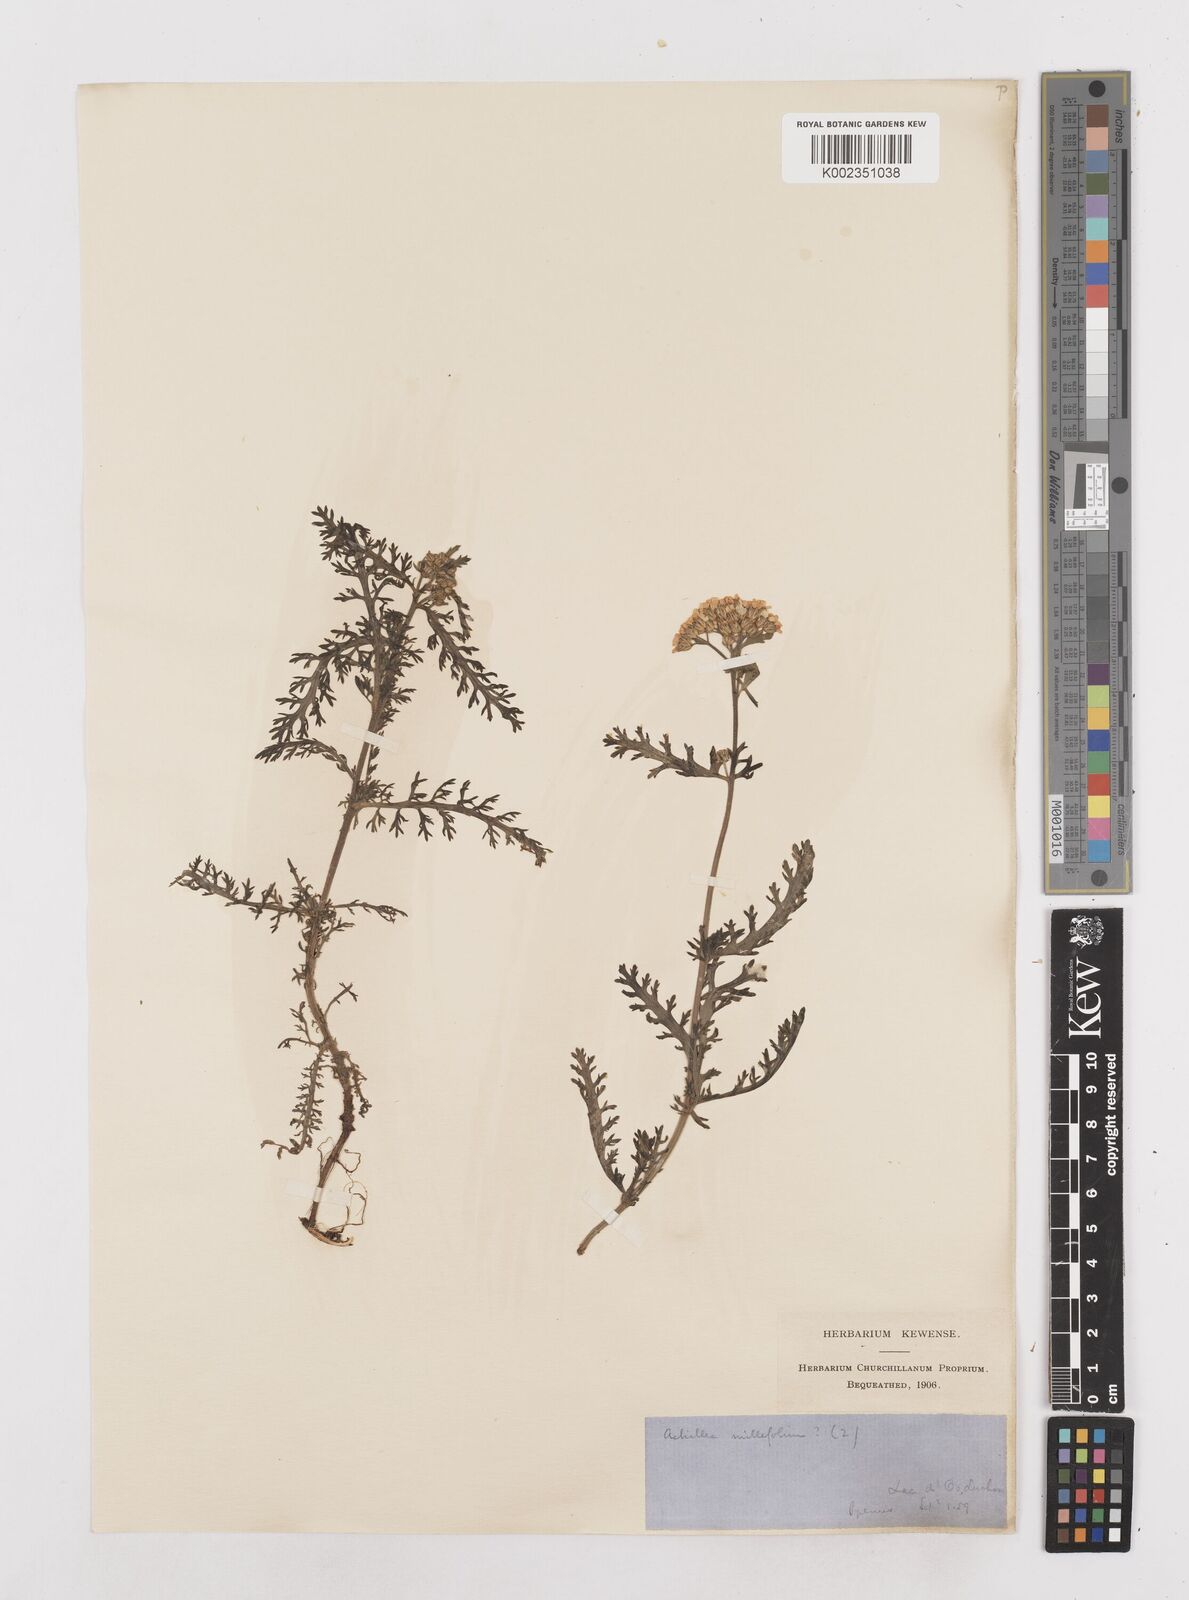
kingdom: Plantae
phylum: Tracheophyta
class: Magnoliopsida
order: Asterales
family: Asteraceae
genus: Achillea
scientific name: Achillea millefolium
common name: Yarrow
